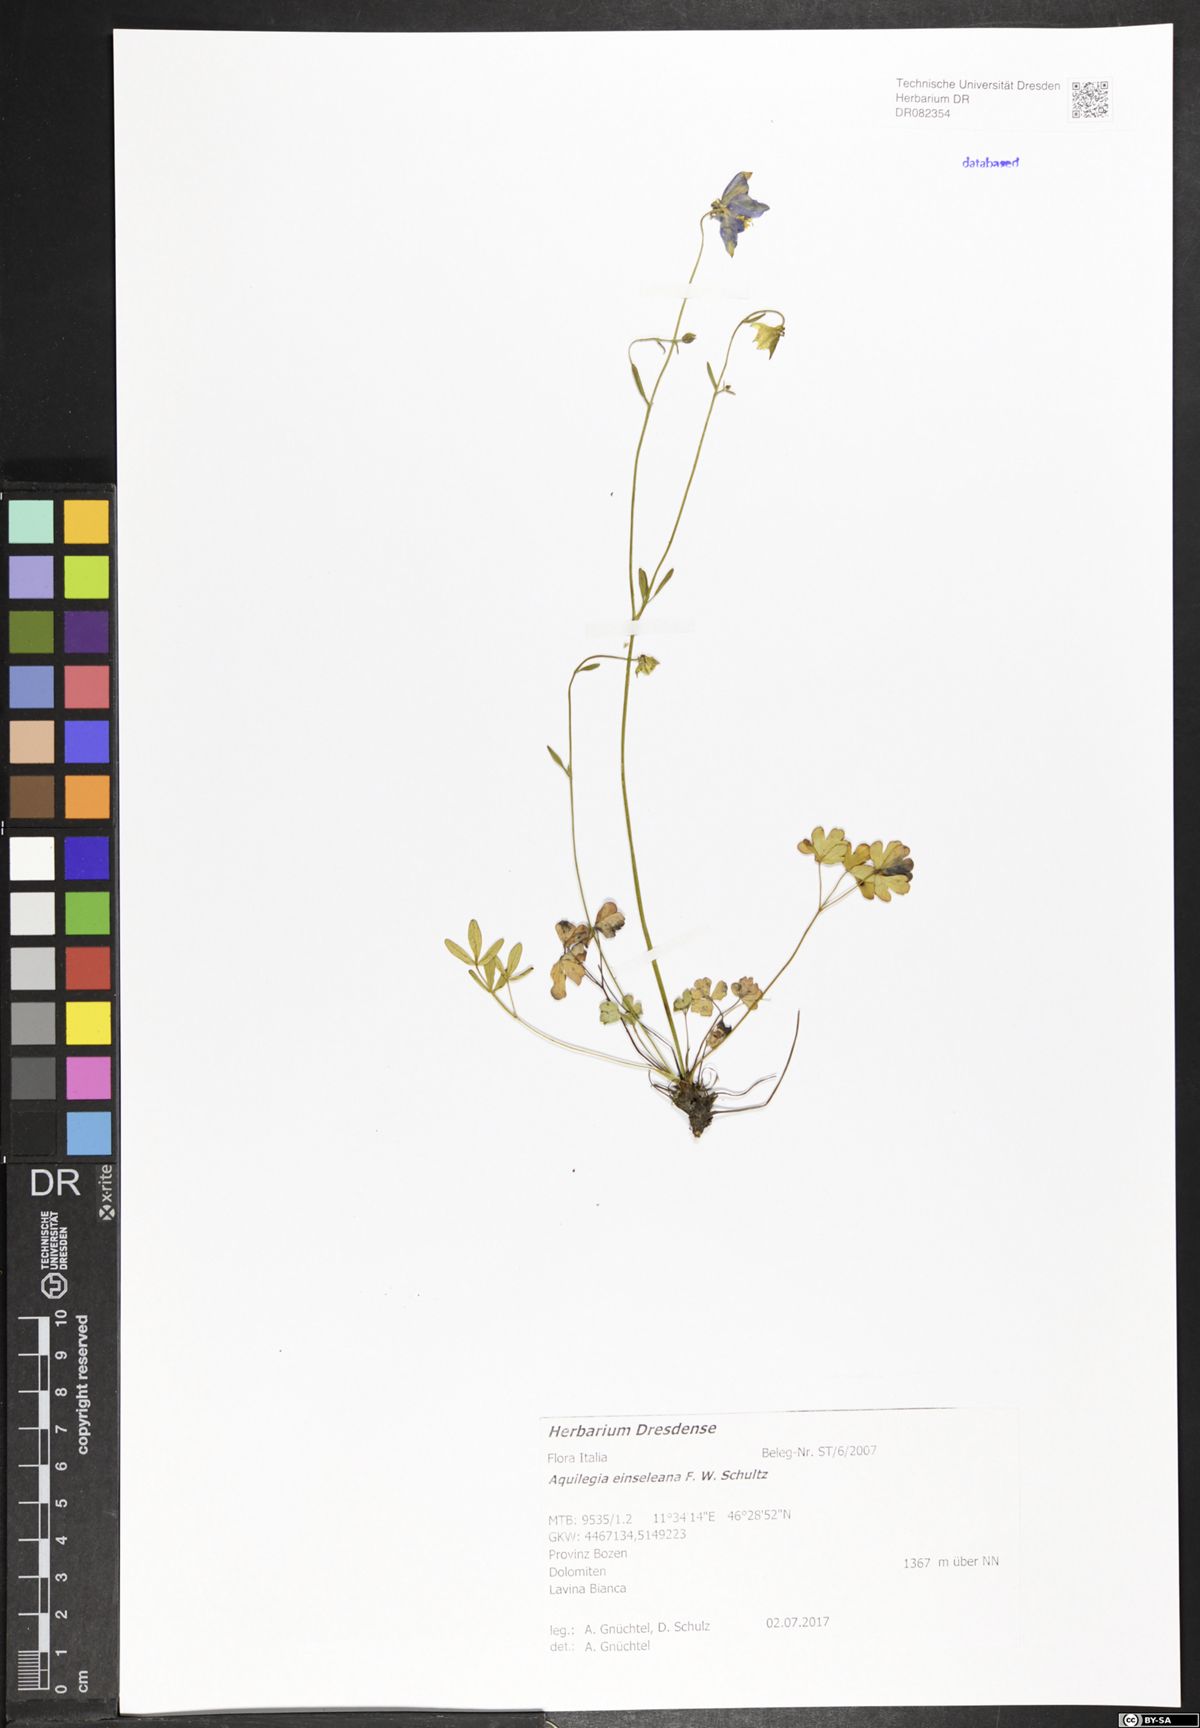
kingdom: Plantae
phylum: Tracheophyta
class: Magnoliopsida
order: Ranunculales
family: Ranunculaceae
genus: Aquilegia
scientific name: Aquilegia einseleana
